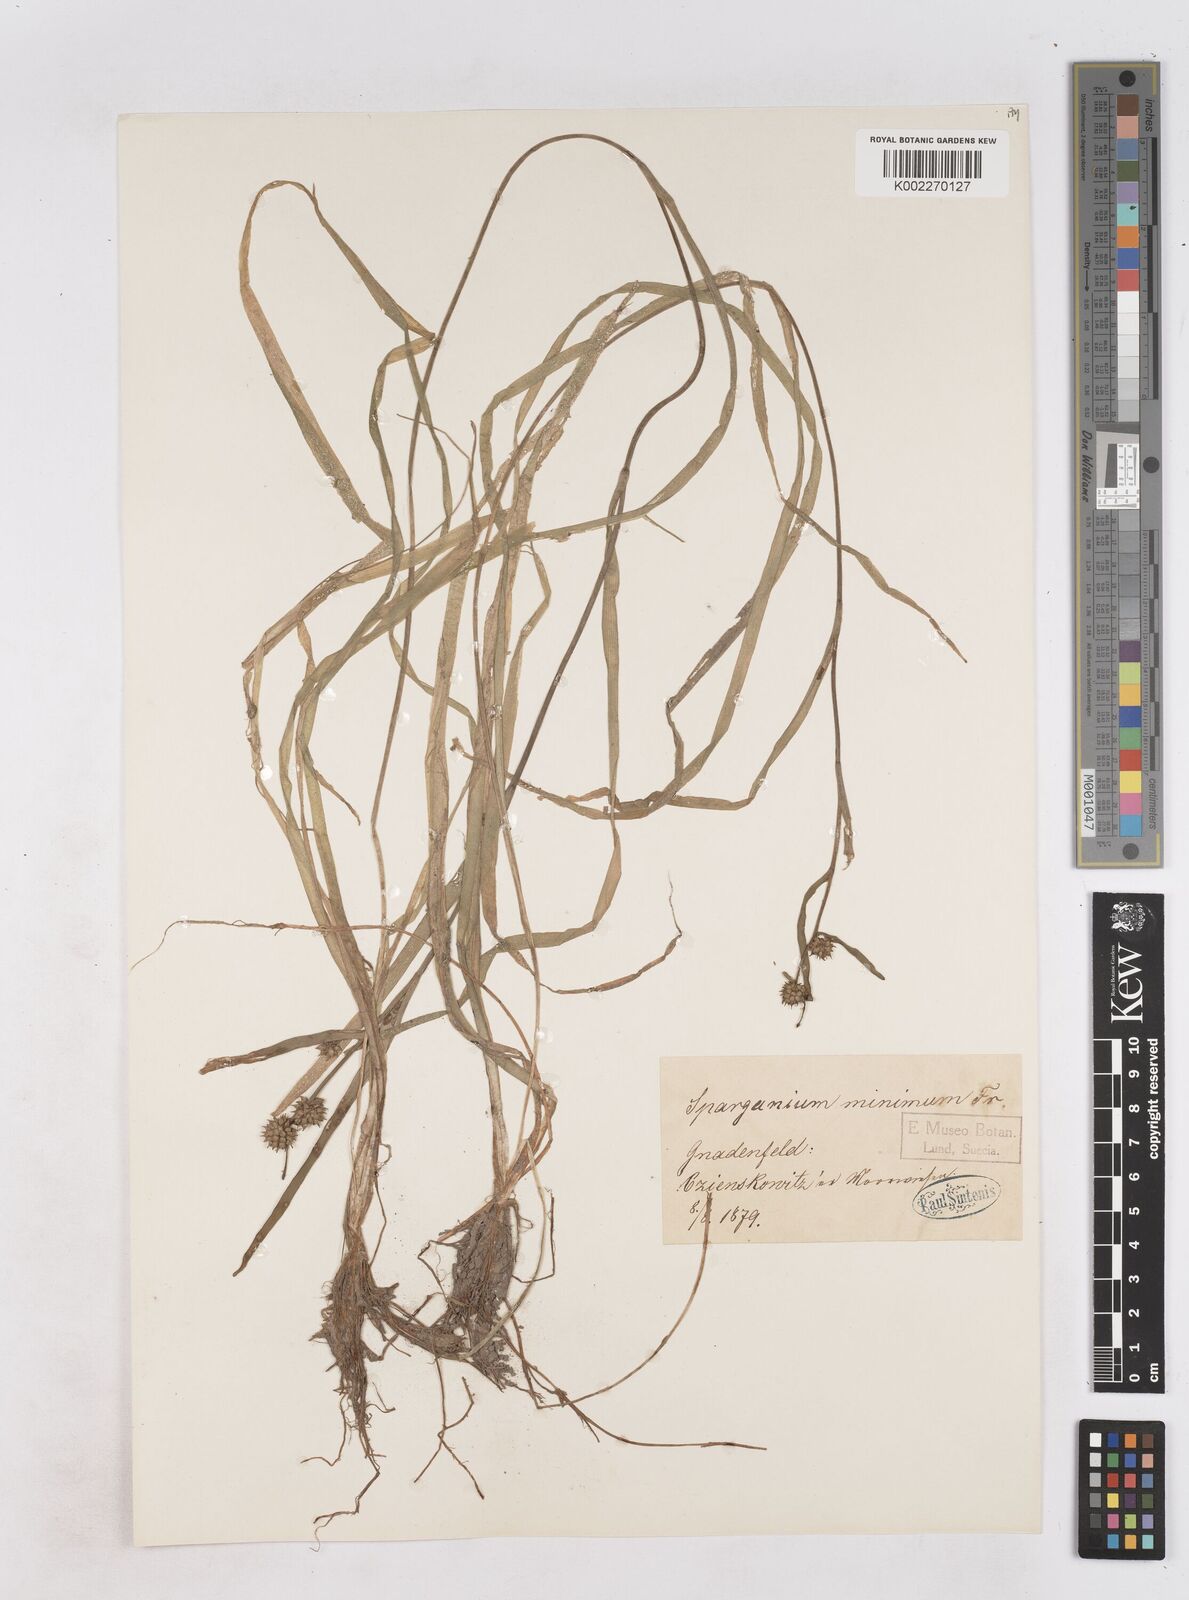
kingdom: Plantae
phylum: Tracheophyta
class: Liliopsida
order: Poales
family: Typhaceae
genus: Sparganium
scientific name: Sparganium natans
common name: Least bur-reed
